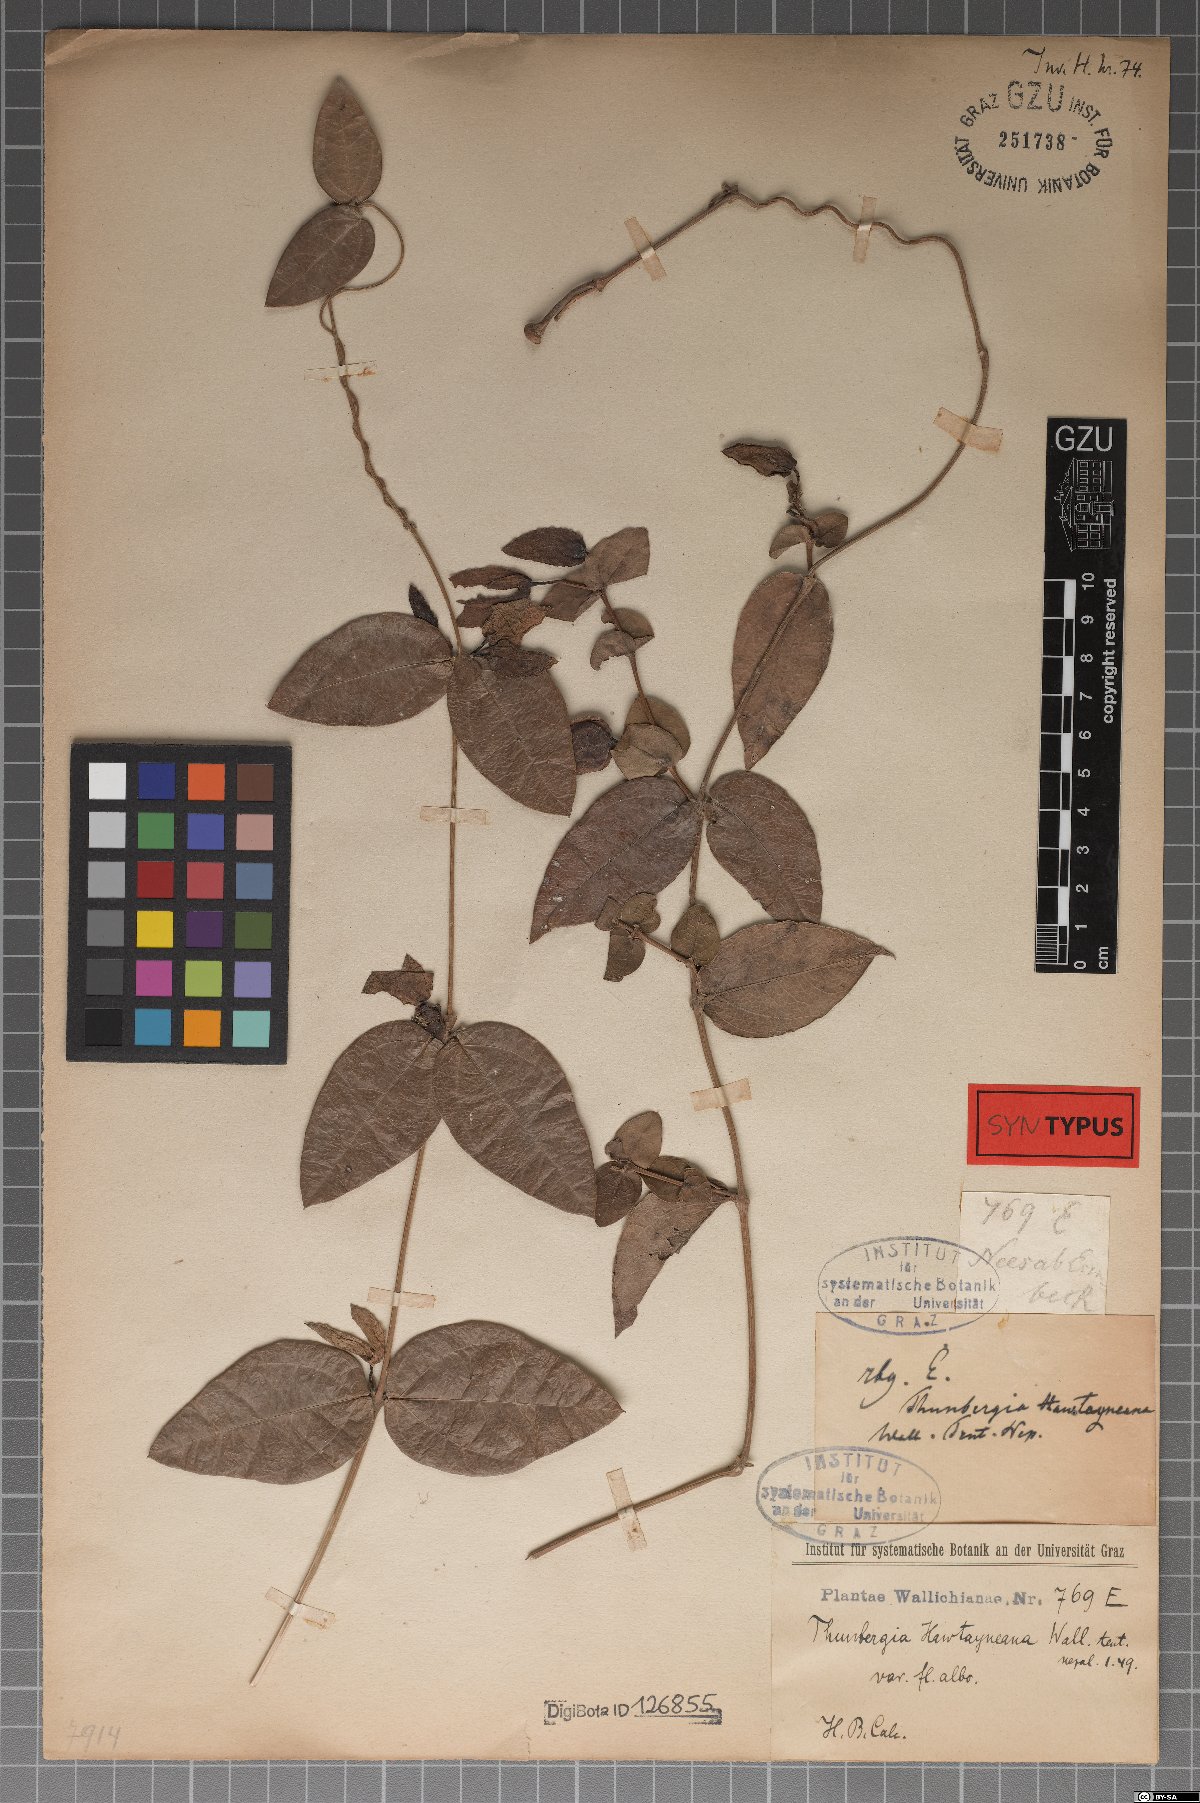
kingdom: Plantae
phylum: Tracheophyta
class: Magnoliopsida
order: Lamiales
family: Acanthaceae
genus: Meyenia
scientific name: Meyenia hawtayneana
